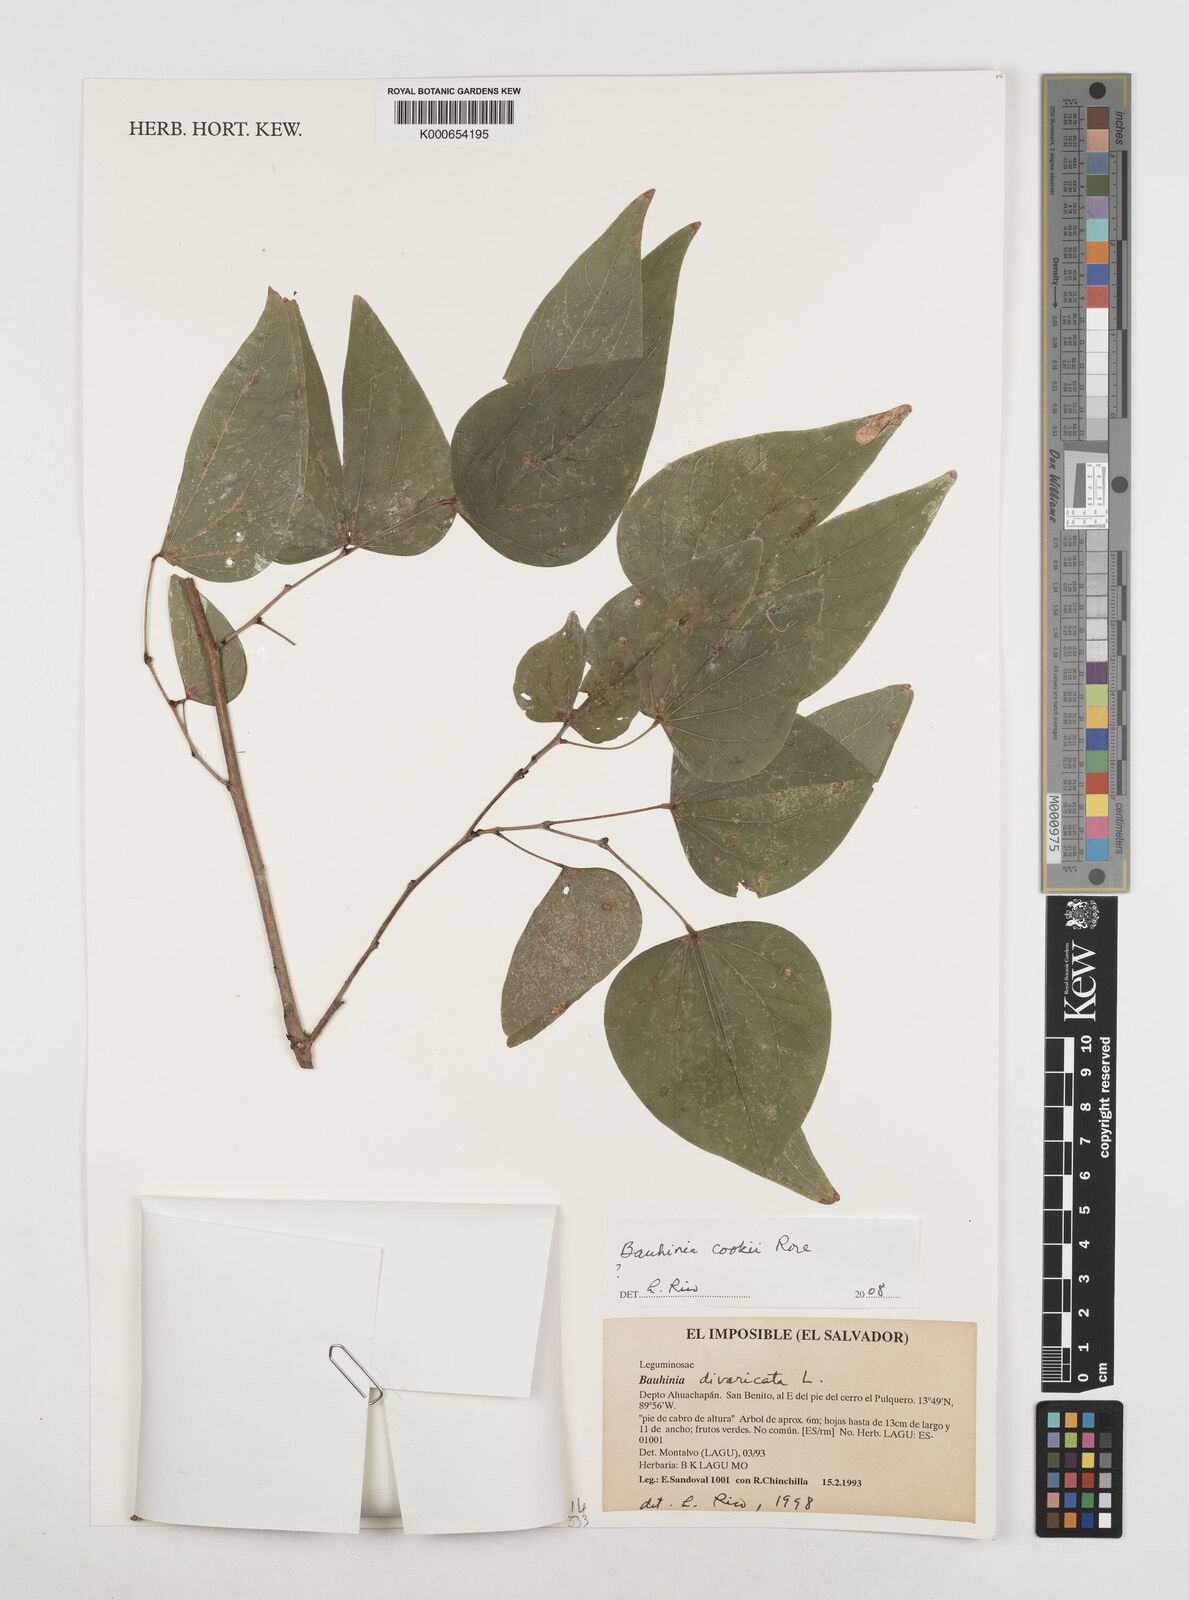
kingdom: Plantae
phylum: Tracheophyta
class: Magnoliopsida
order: Fabales
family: Fabaceae
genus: Bauhinia
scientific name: Bauhinia cookii
